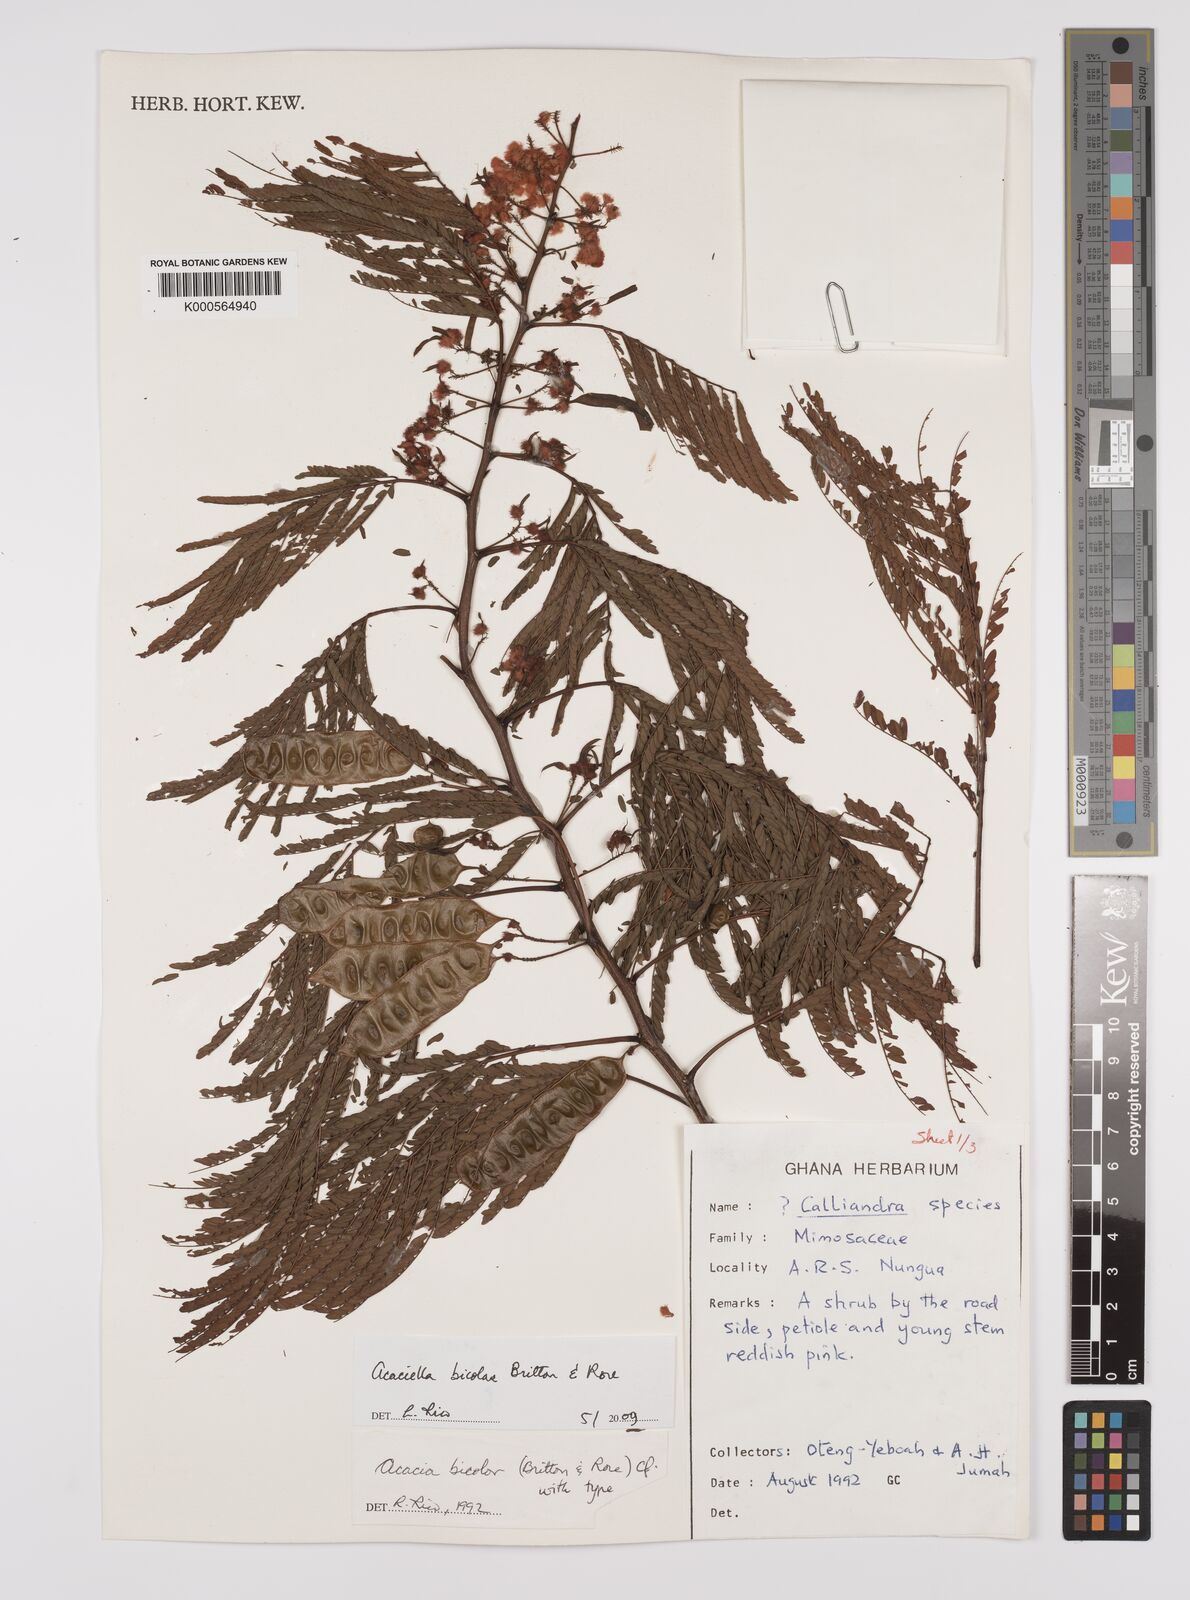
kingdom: Plantae
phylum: Tracheophyta
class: Magnoliopsida
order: Fabales
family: Fabaceae
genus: Acaciella
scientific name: Acaciella bicolor
